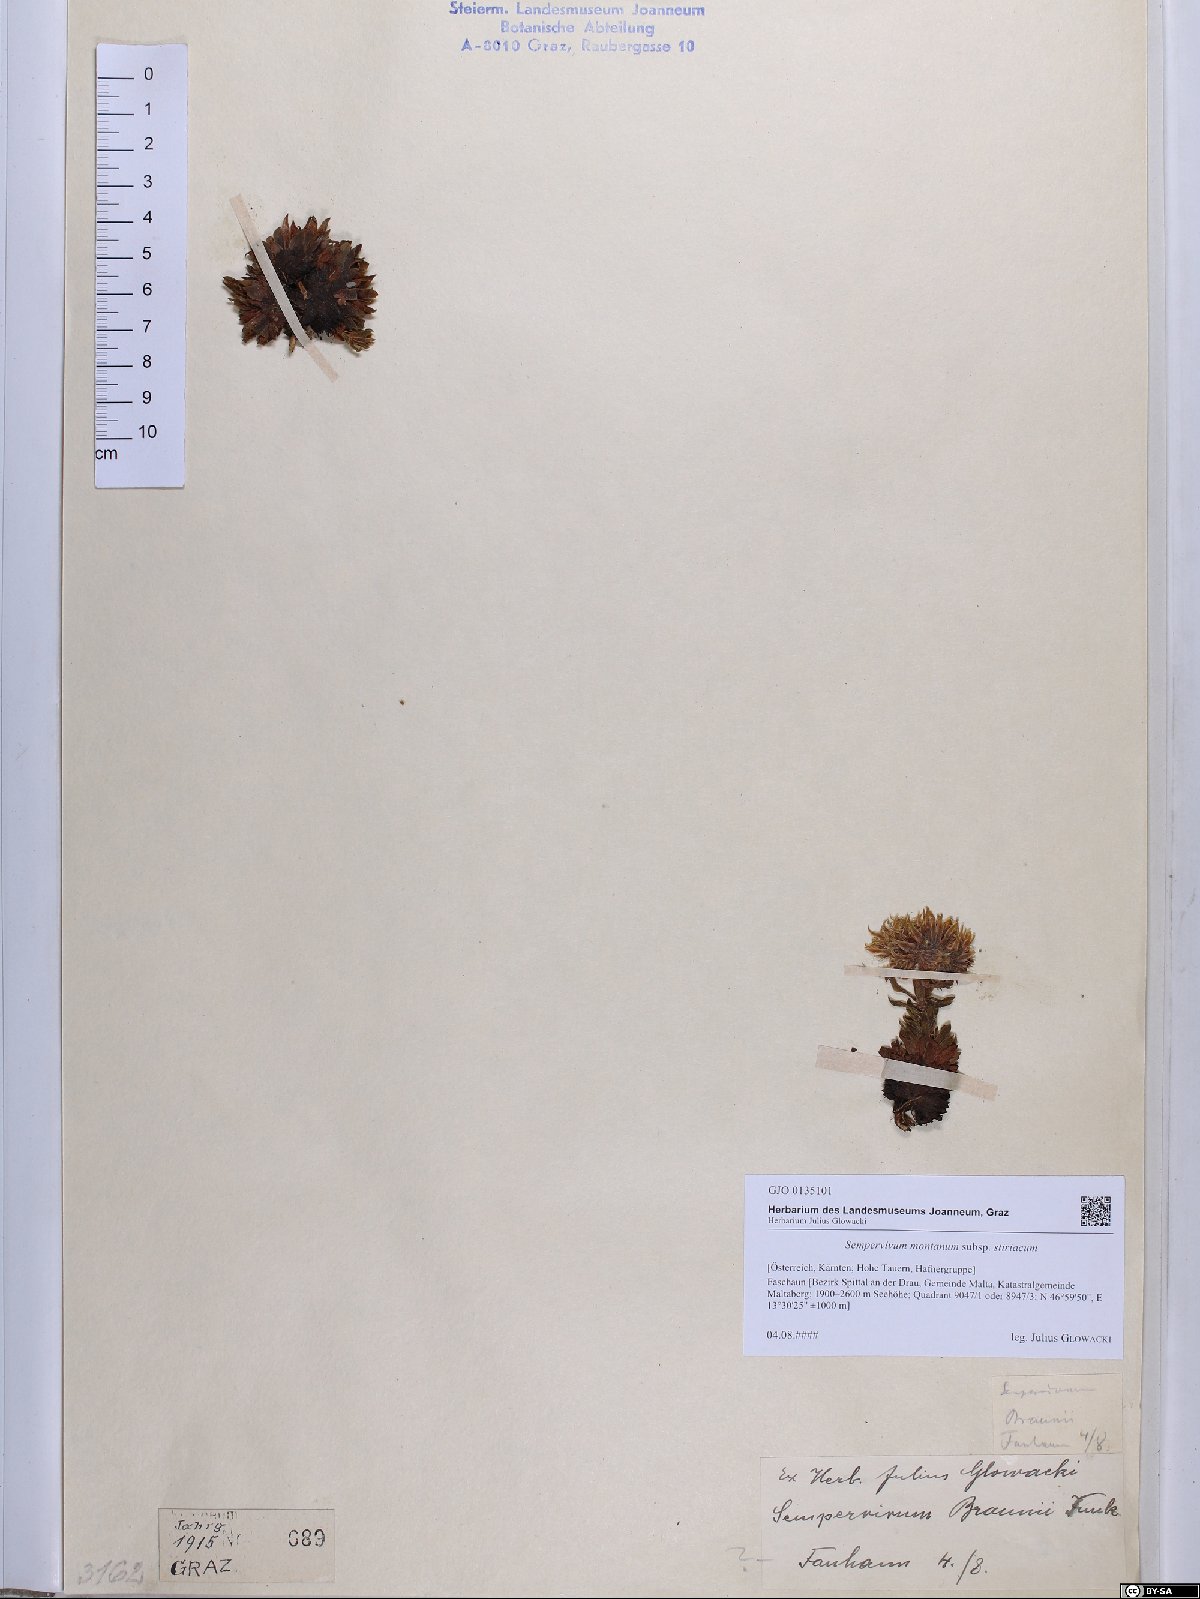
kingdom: Plantae
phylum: Tracheophyta
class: Magnoliopsida
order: Saxifragales
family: Crassulaceae
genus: Sempervivum
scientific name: Sempervivum montanum
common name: Mountain house-leek
